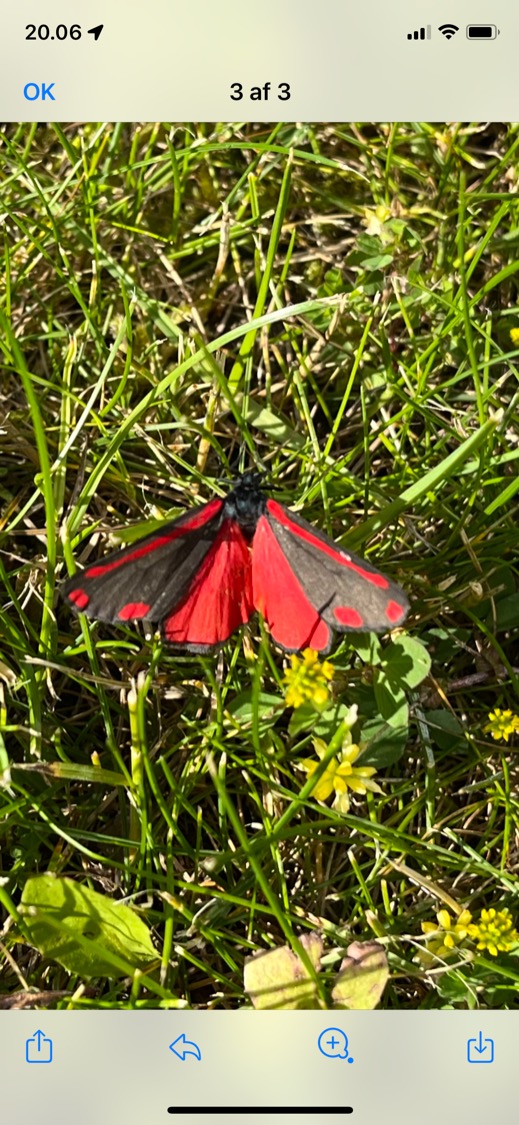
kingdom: Animalia
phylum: Arthropoda
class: Insecta
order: Lepidoptera
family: Erebidae
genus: Tyria
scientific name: Tyria jacobaeae
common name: Blodplet
